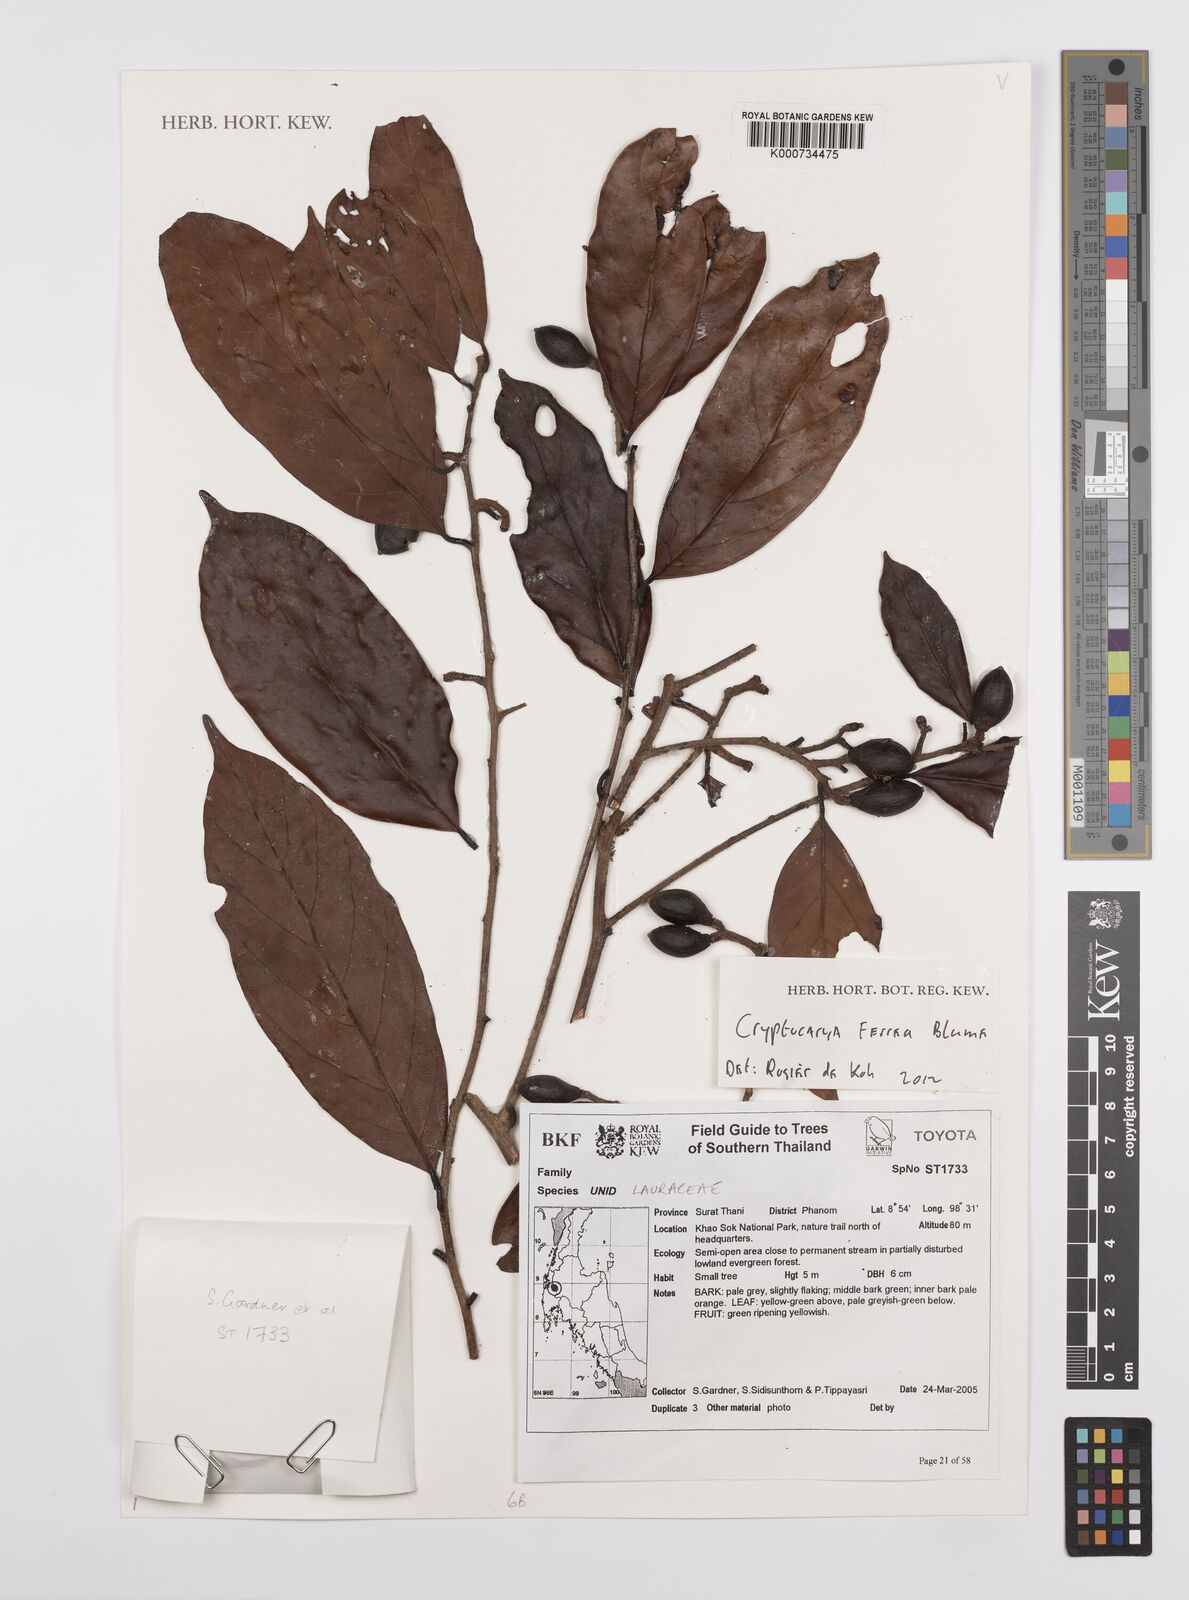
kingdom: Plantae
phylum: Tracheophyta
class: Magnoliopsida
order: Laurales
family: Lauraceae
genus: Cryptocarya
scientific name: Cryptocarya ferrea
